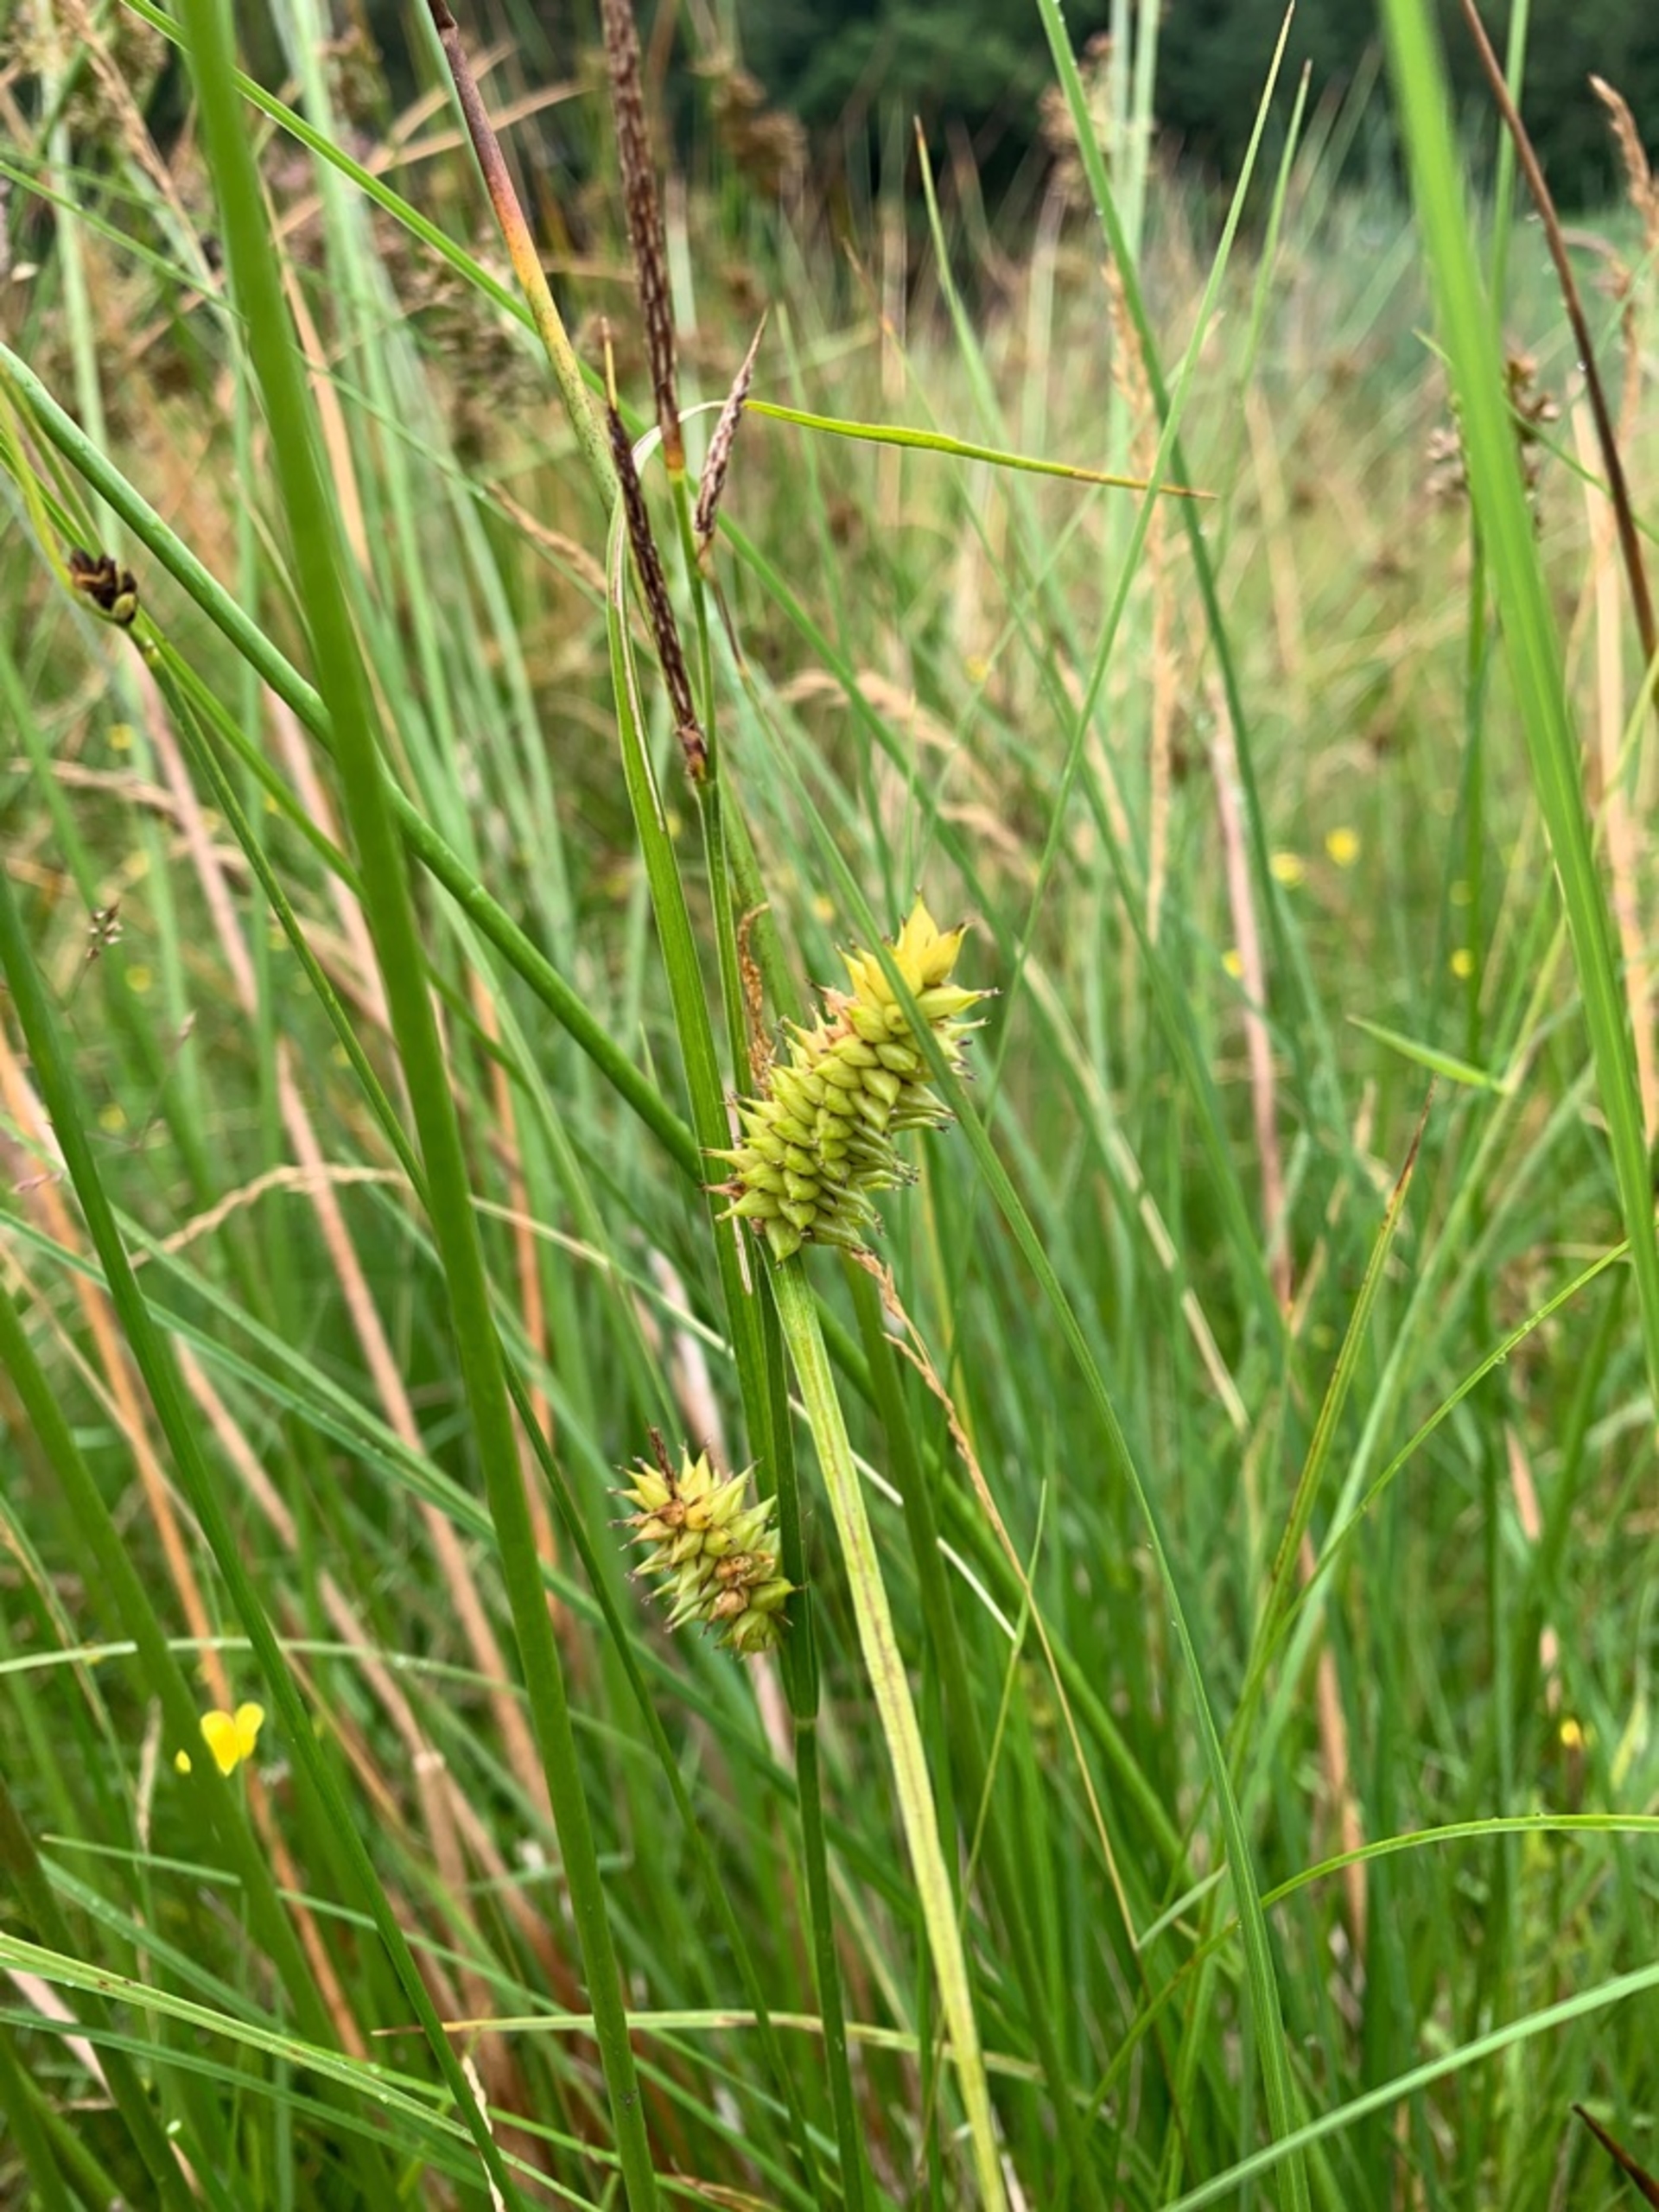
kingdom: Plantae
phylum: Tracheophyta
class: Liliopsida
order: Poales
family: Cyperaceae
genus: Carex
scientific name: Carex vesicaria
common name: Blære-star
